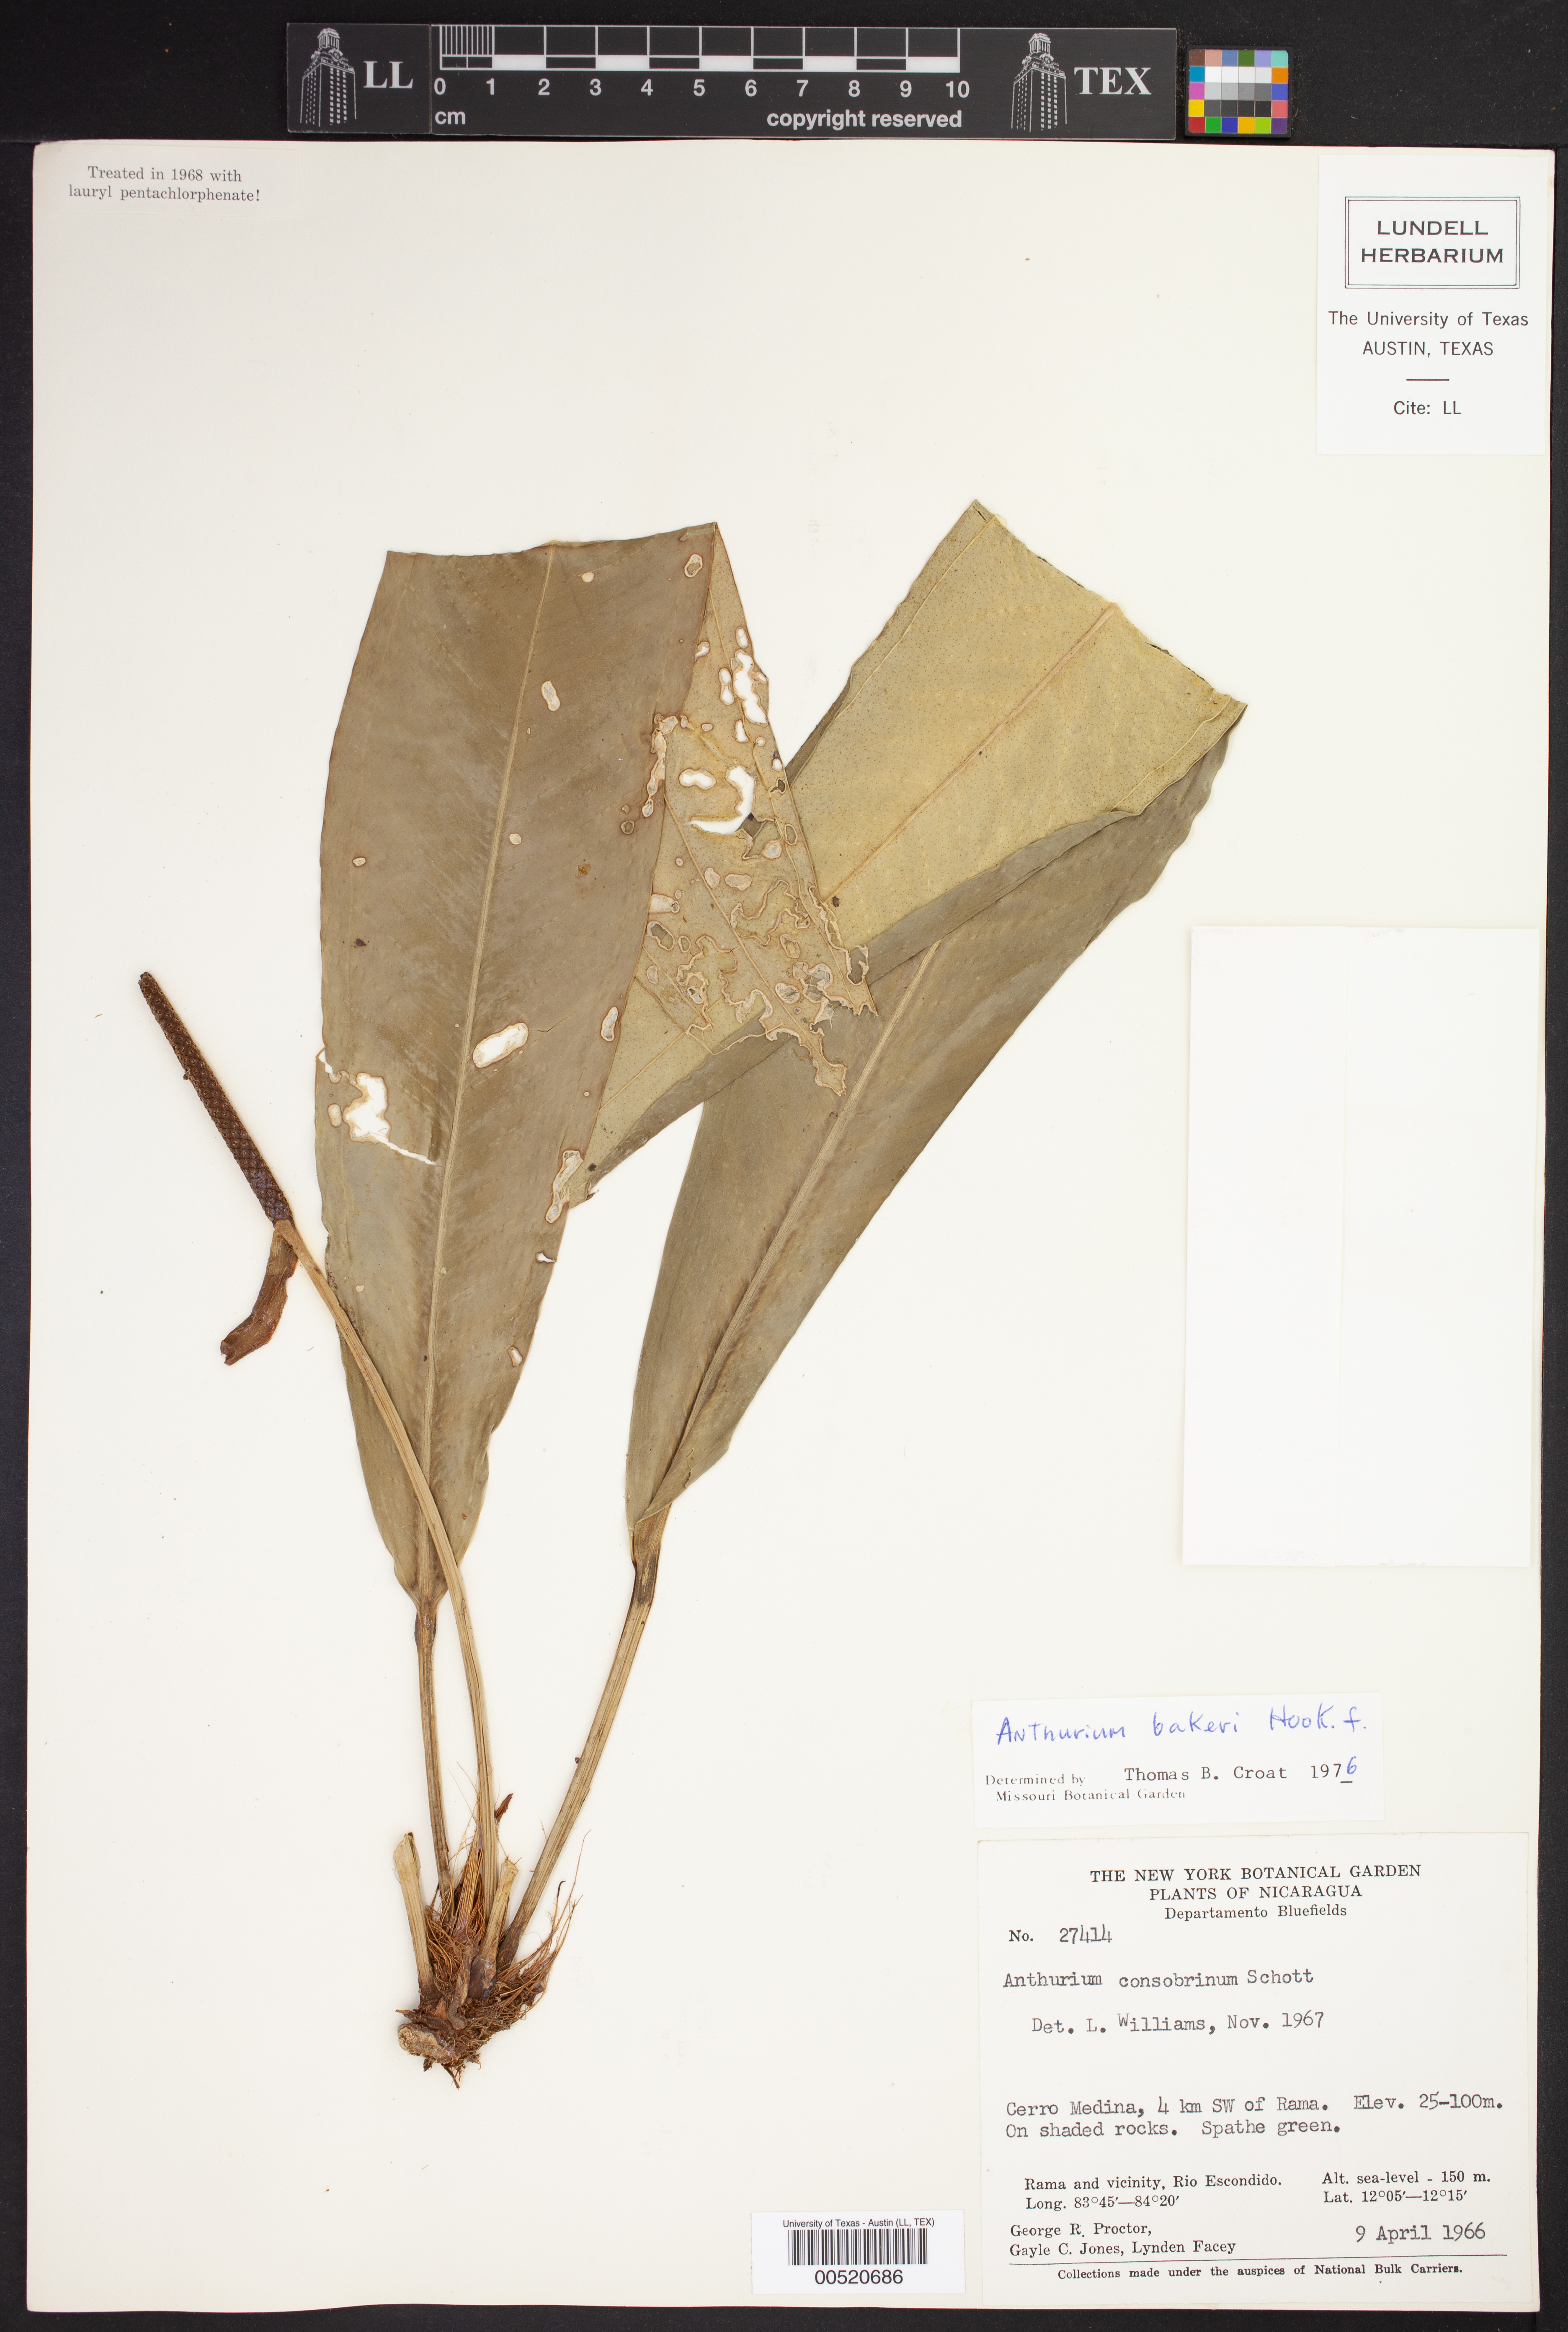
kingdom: Plantae
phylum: Tracheophyta
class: Liliopsida
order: Alismatales
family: Araceae
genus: Anthurium
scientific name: Anthurium bakeri
